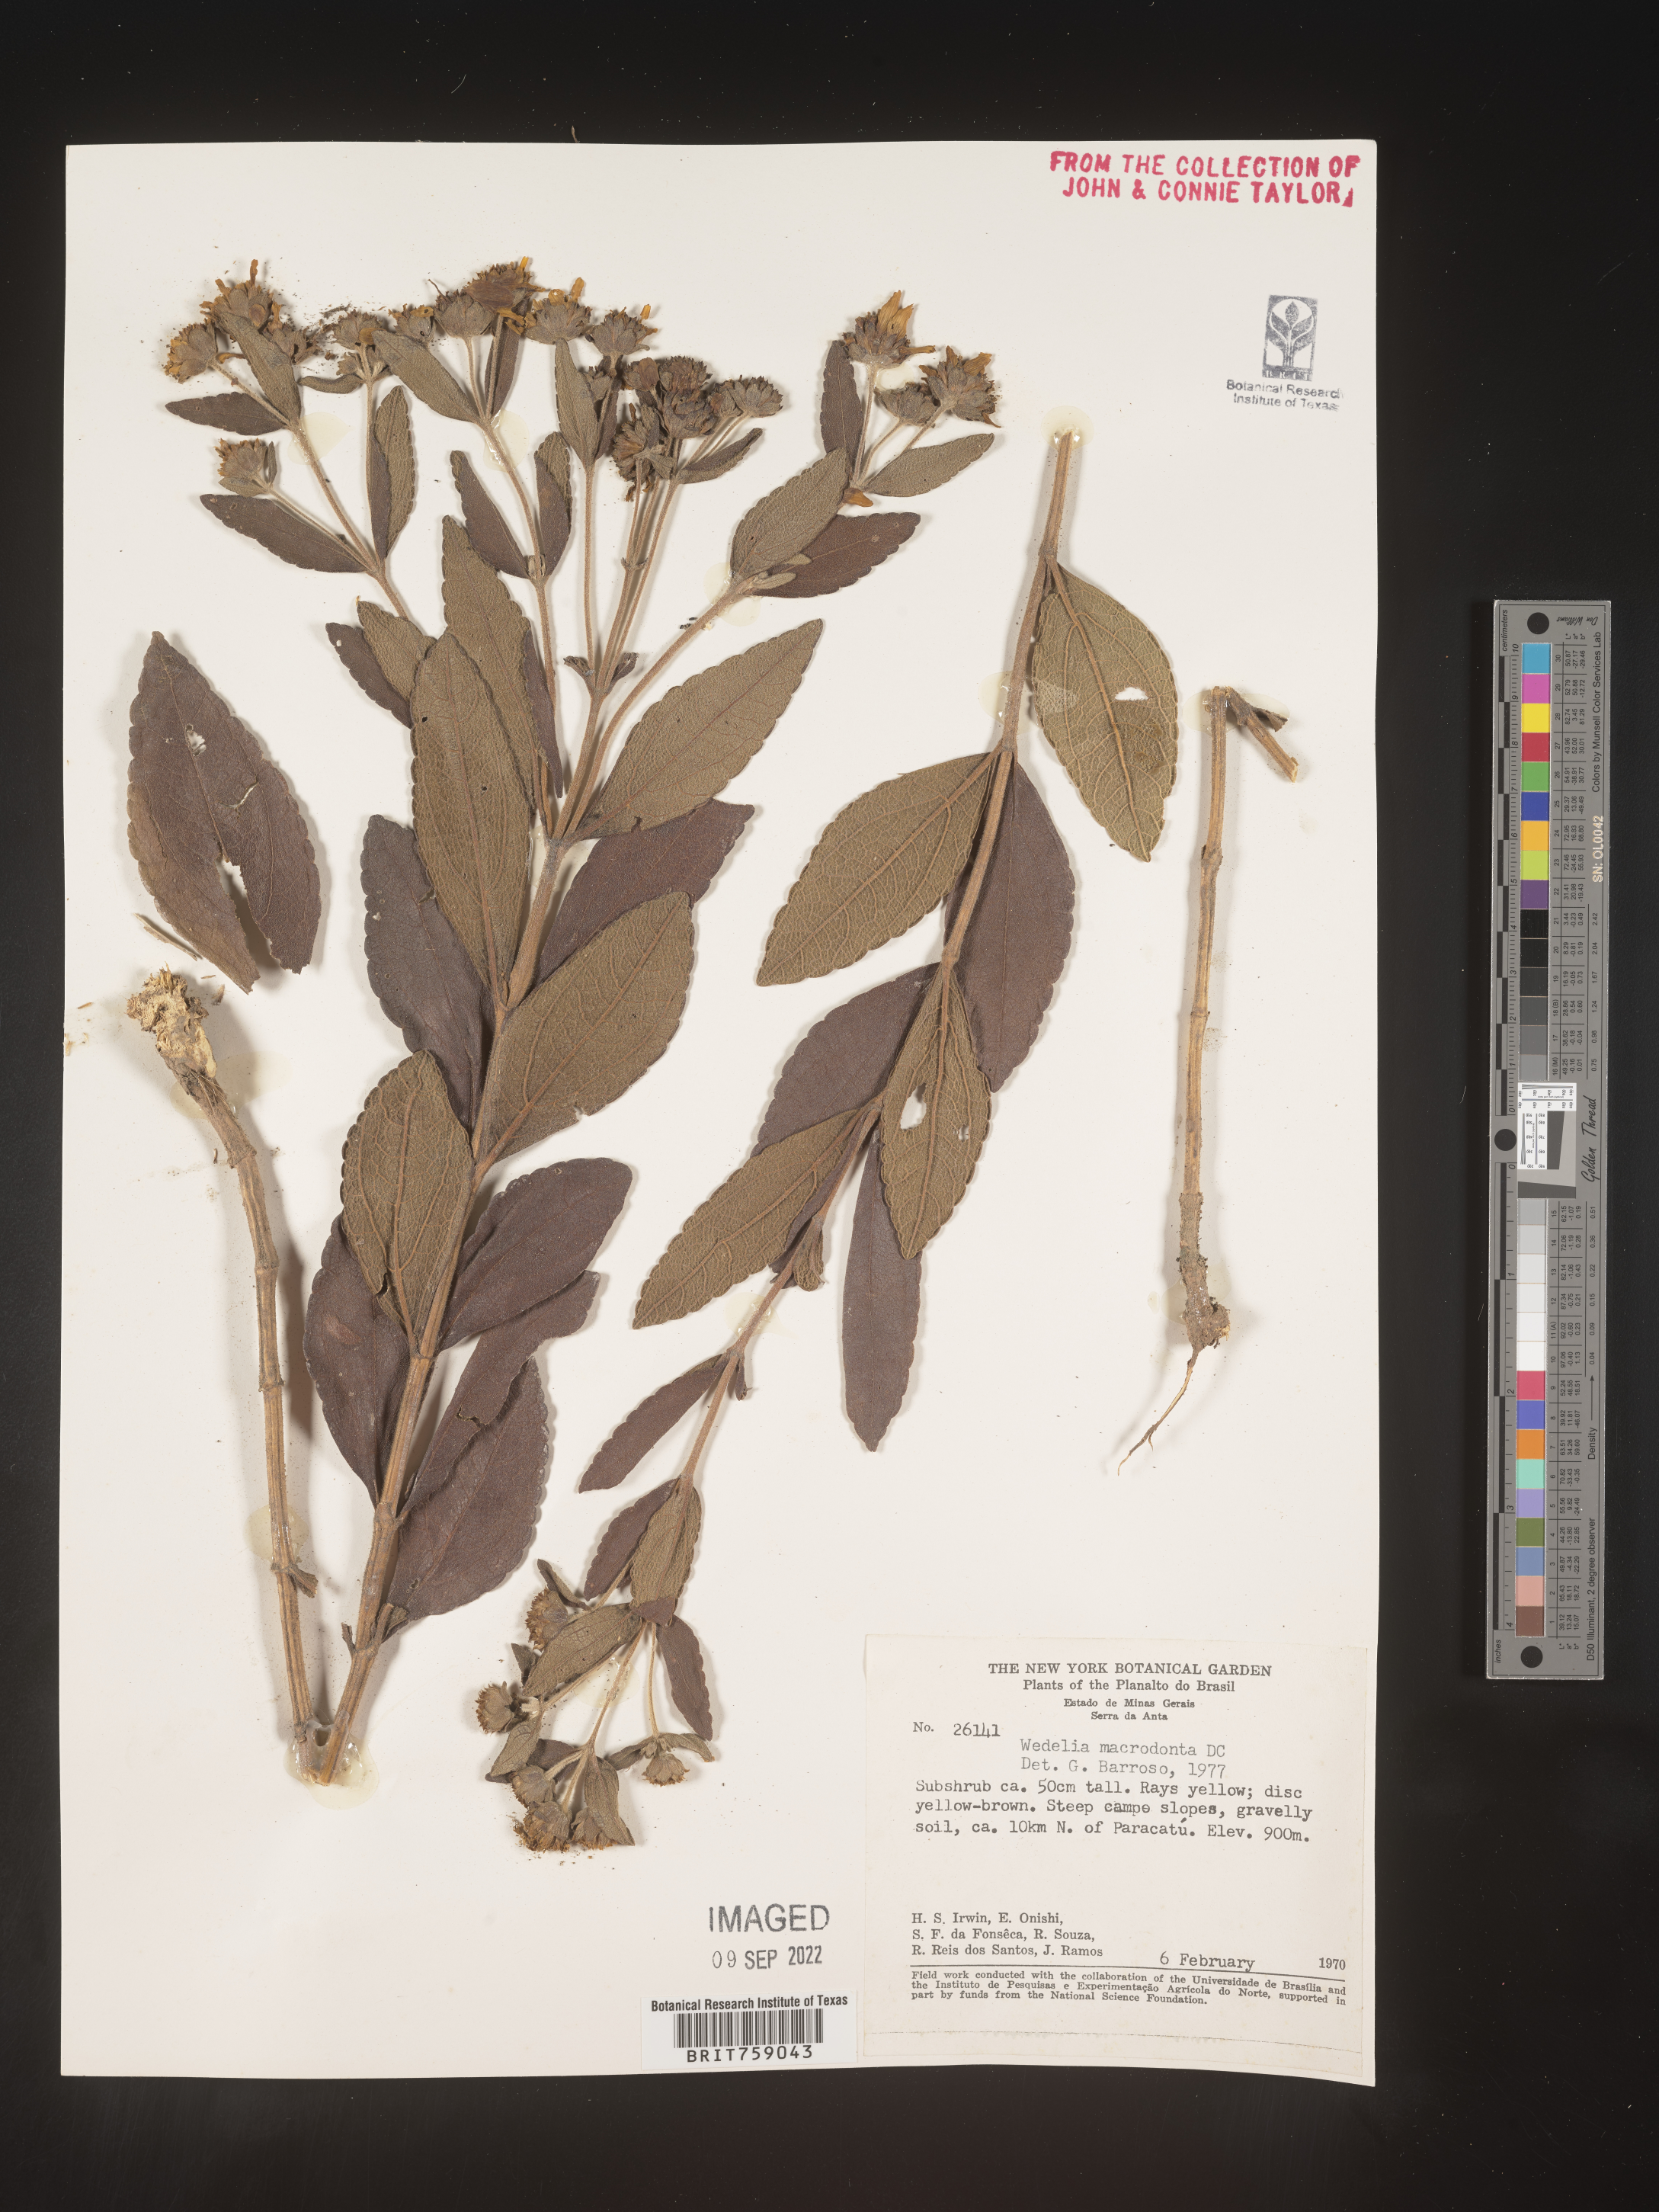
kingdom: Plantae
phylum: Tracheophyta
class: Magnoliopsida
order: Asterales
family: Asteraceae
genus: Wedelia
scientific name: Wedelia
